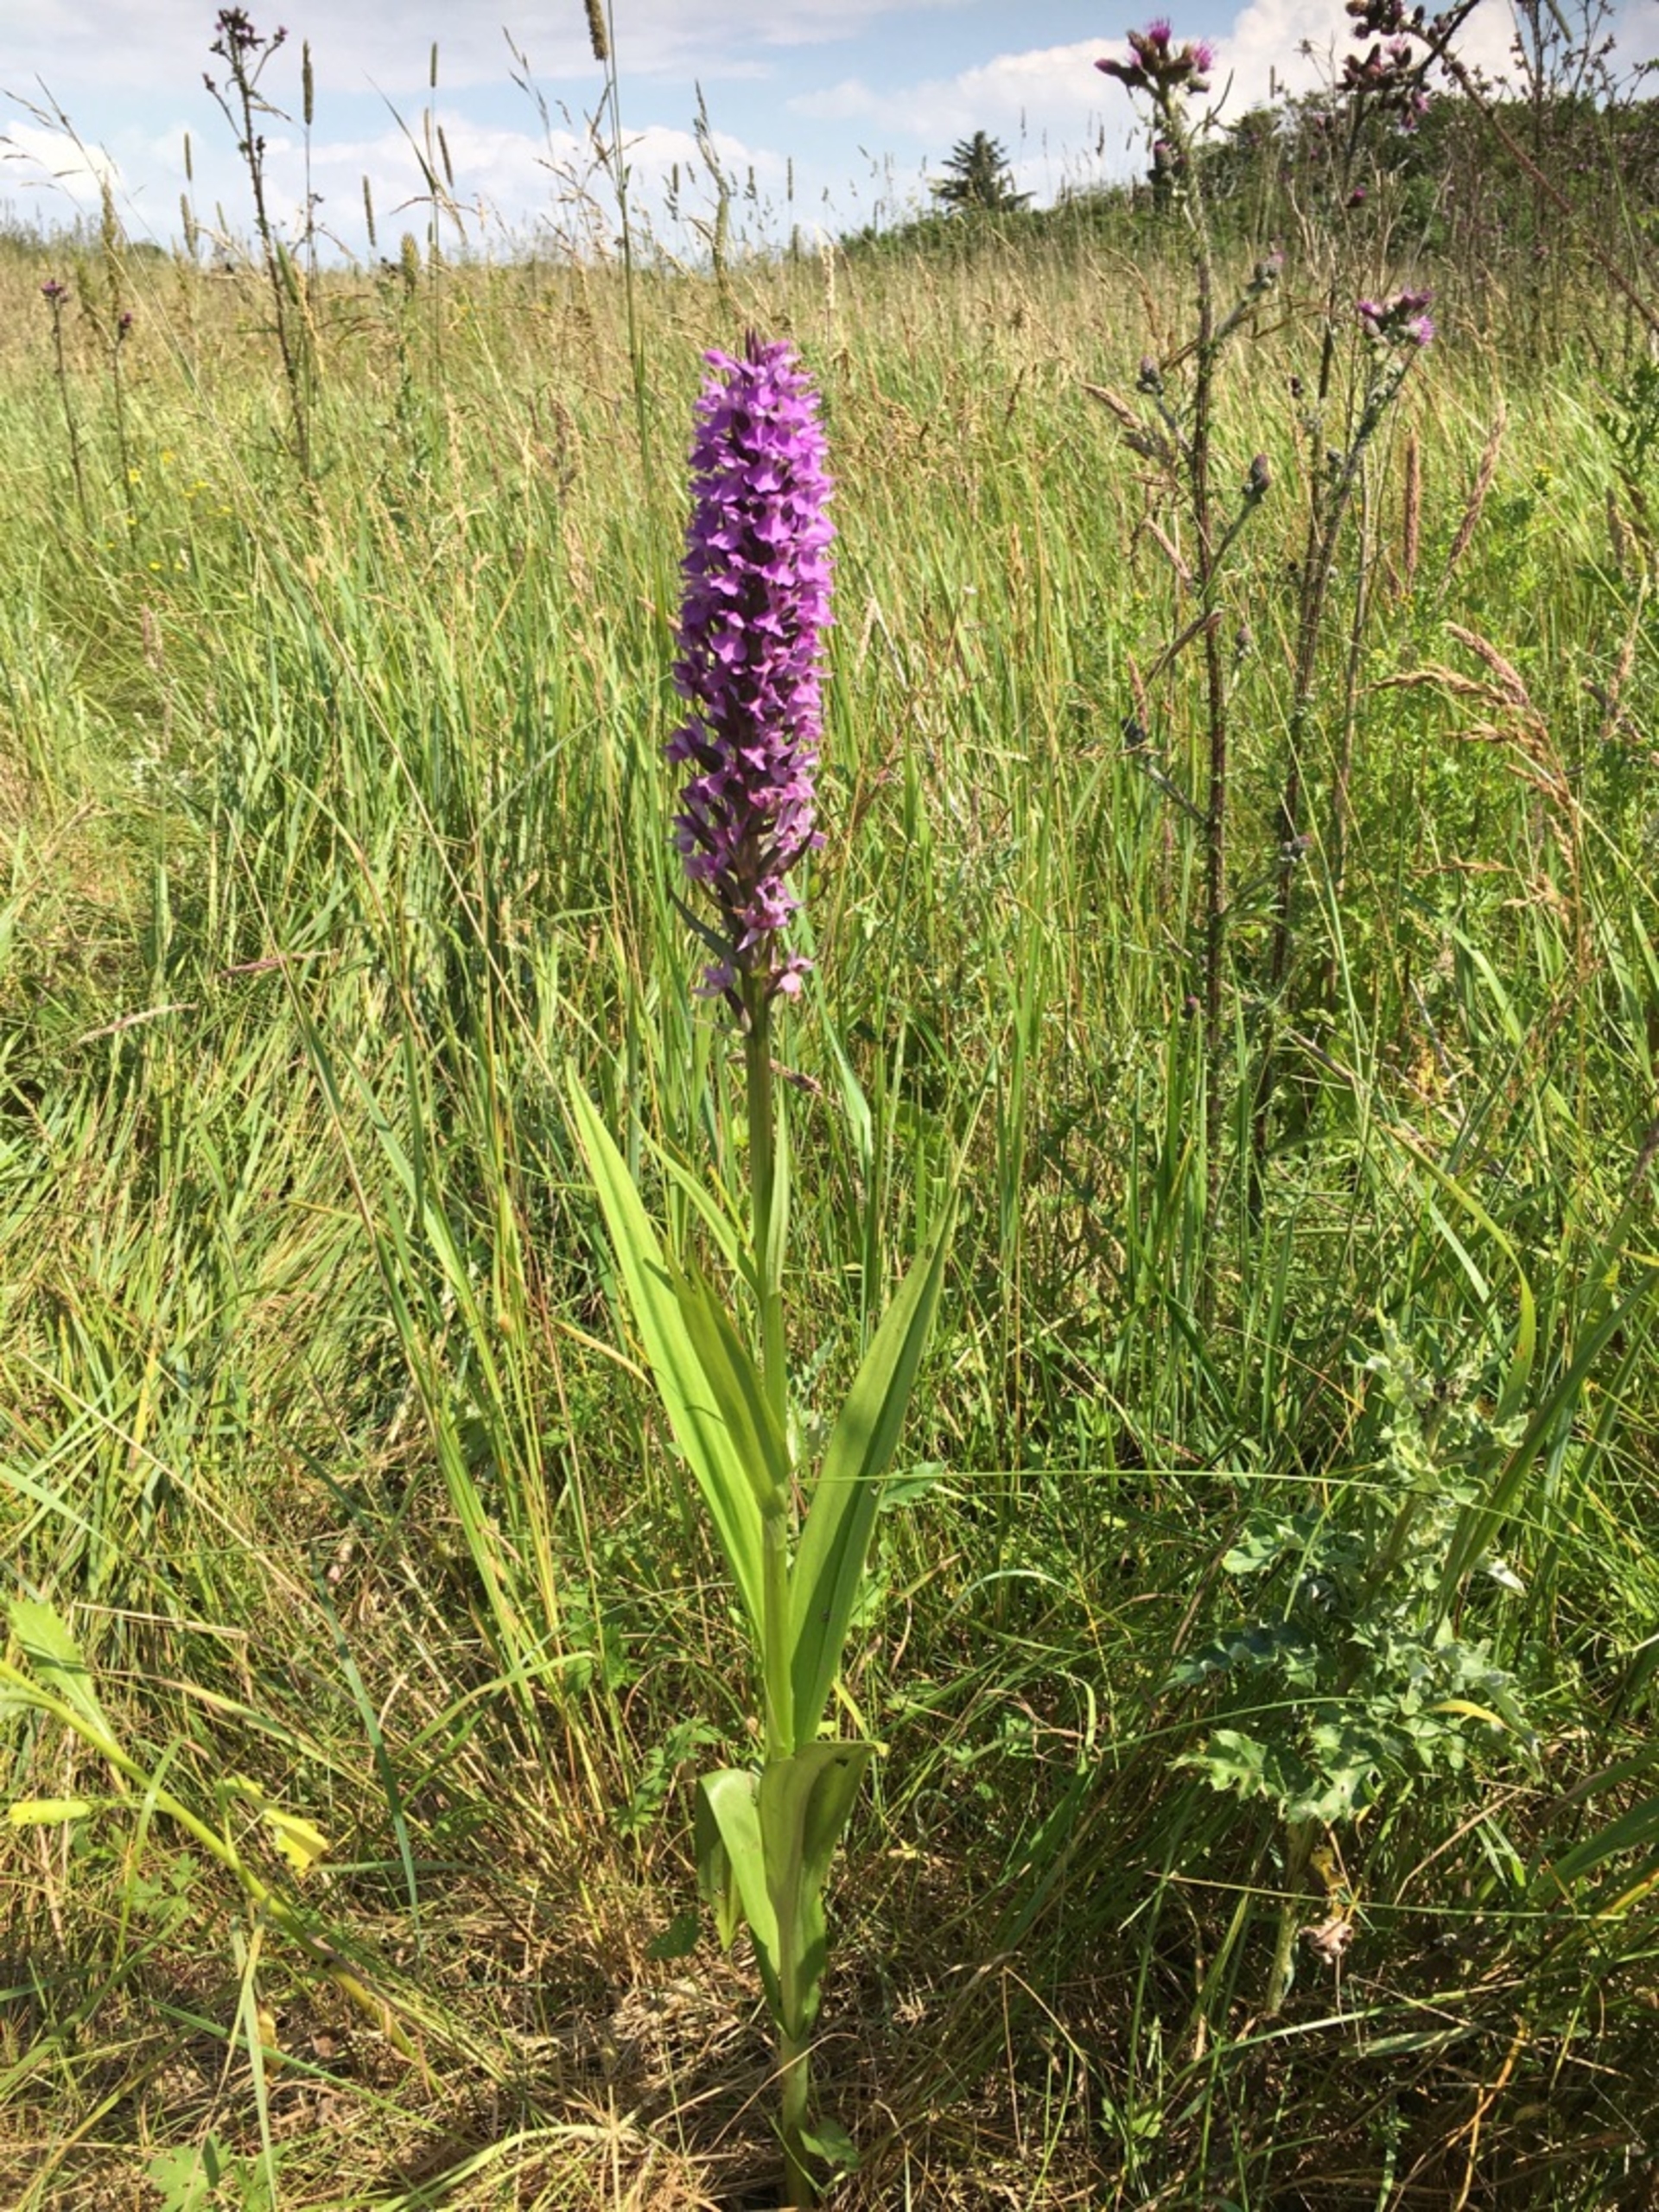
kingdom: Plantae
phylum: Tracheophyta
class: Liliopsida
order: Asparagales
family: Orchidaceae
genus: Dactylorhiza
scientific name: Dactylorhiza majalis
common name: Priklæbet gøgeurt
